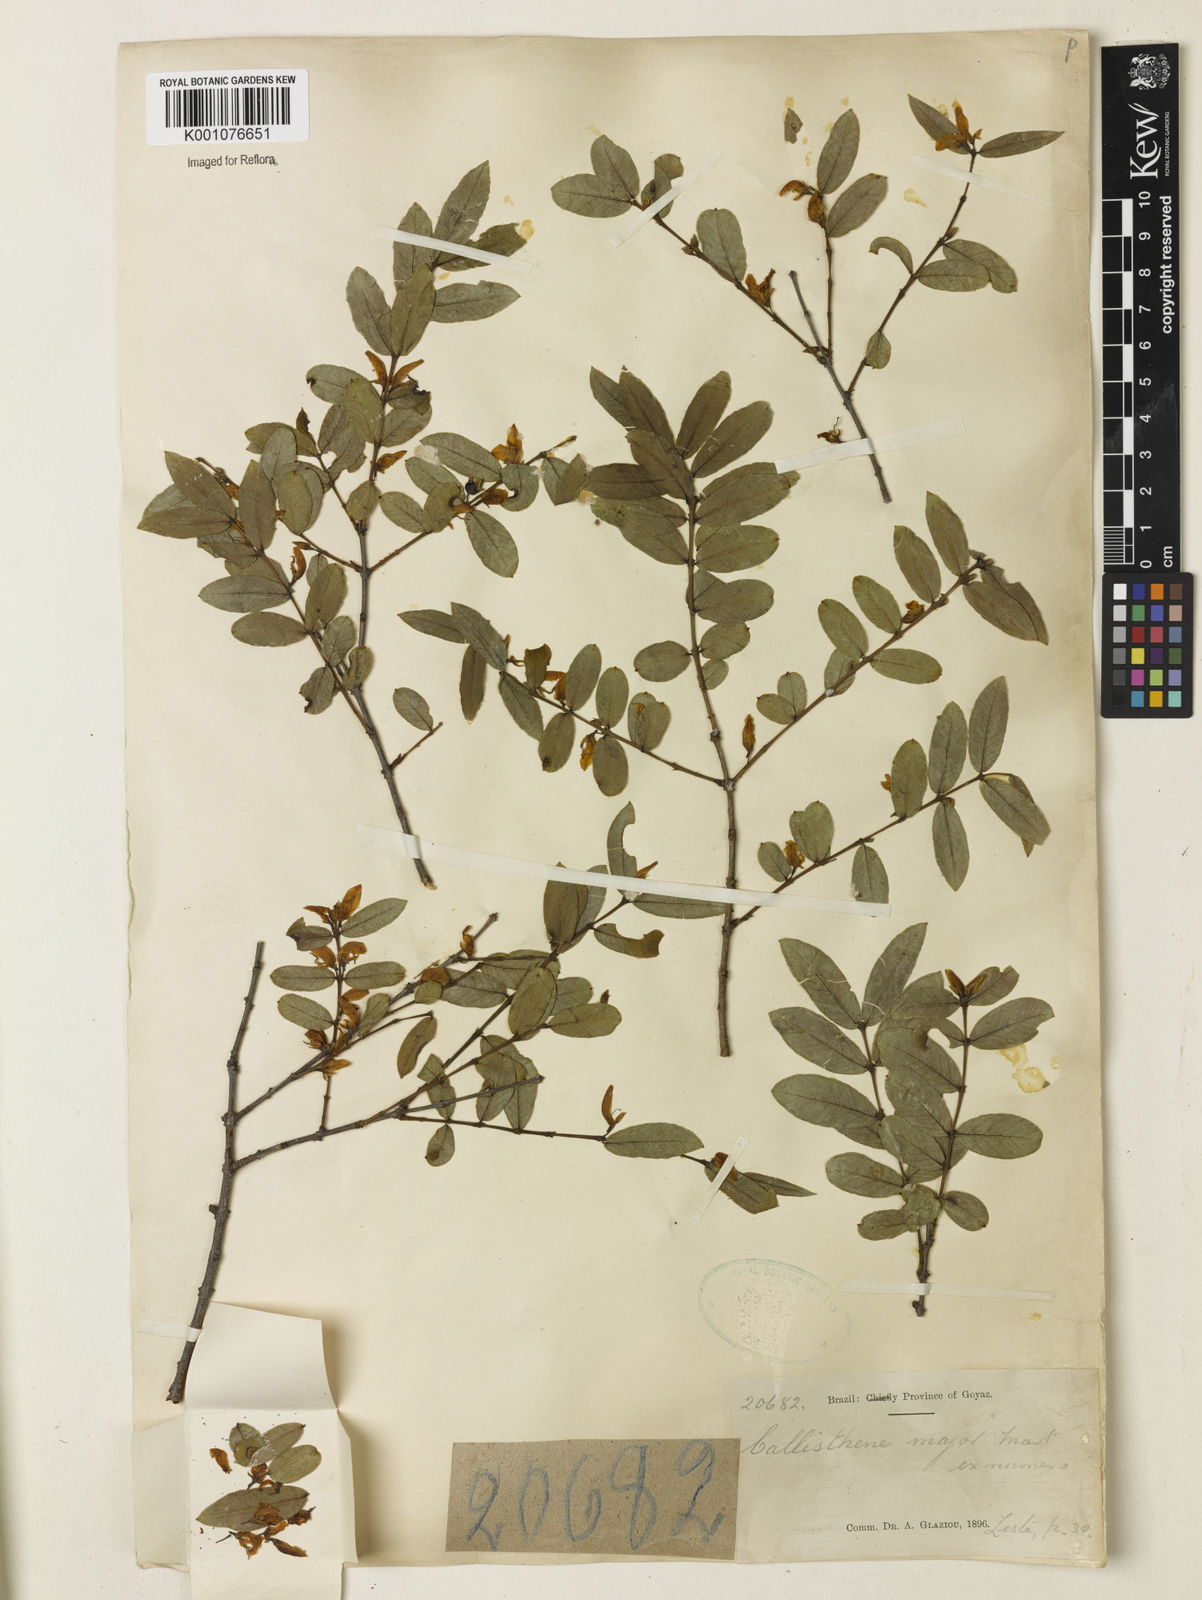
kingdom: Plantae
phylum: Tracheophyta
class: Magnoliopsida
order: Myrtales
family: Vochysiaceae
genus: Callisthene
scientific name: Callisthene major
